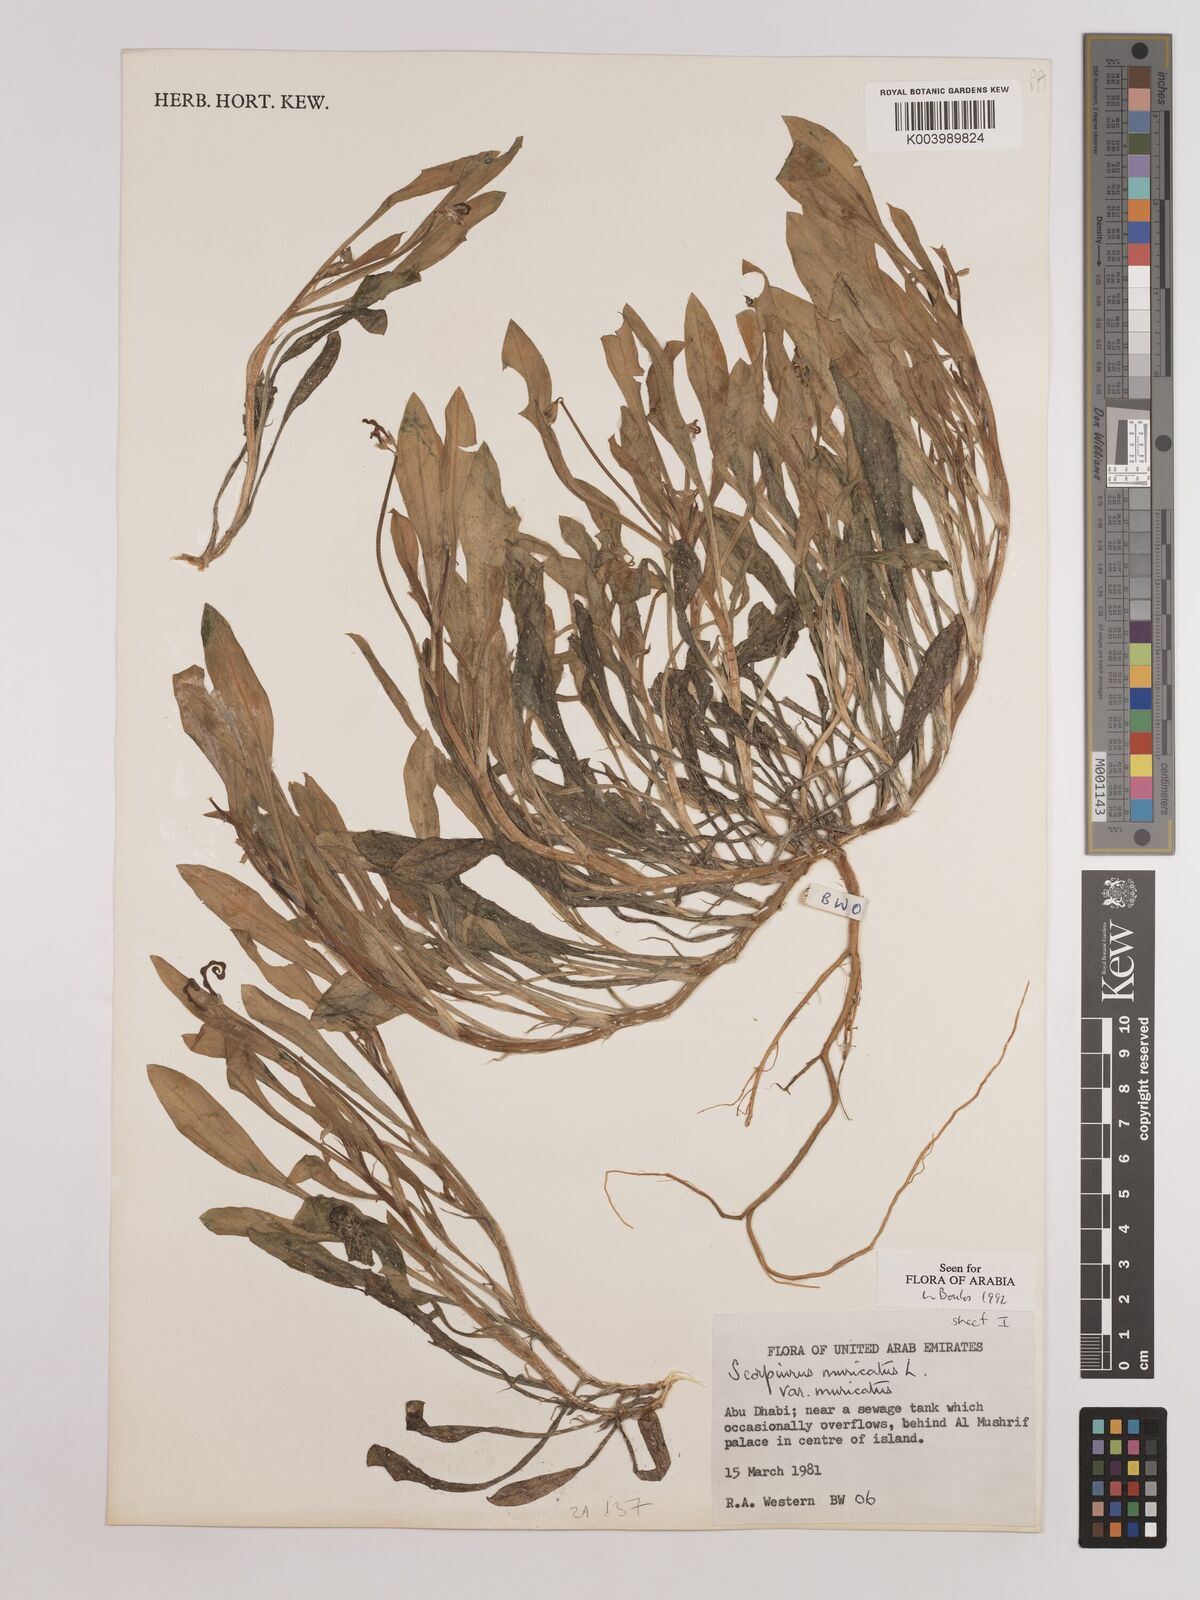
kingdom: Plantae
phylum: Tracheophyta
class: Magnoliopsida
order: Fabales
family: Fabaceae
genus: Scorpiurus
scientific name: Scorpiurus muricatus
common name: Caterpillar-plant
